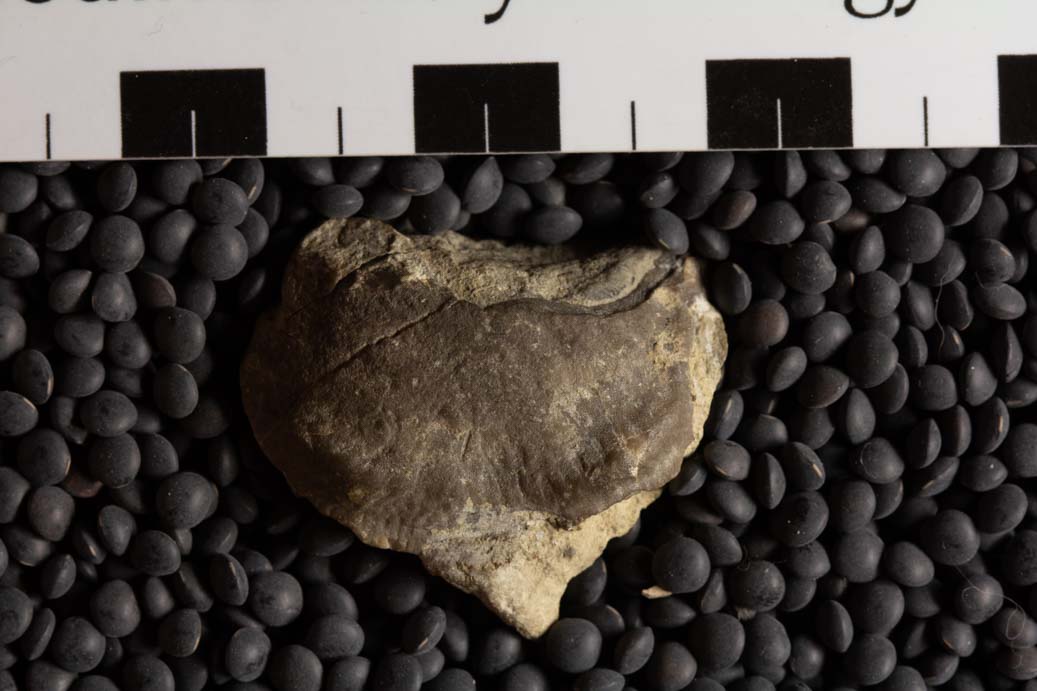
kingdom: Animalia
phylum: Brachiopoda
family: Strophomenidae
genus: Strophomena
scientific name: Strophomena
